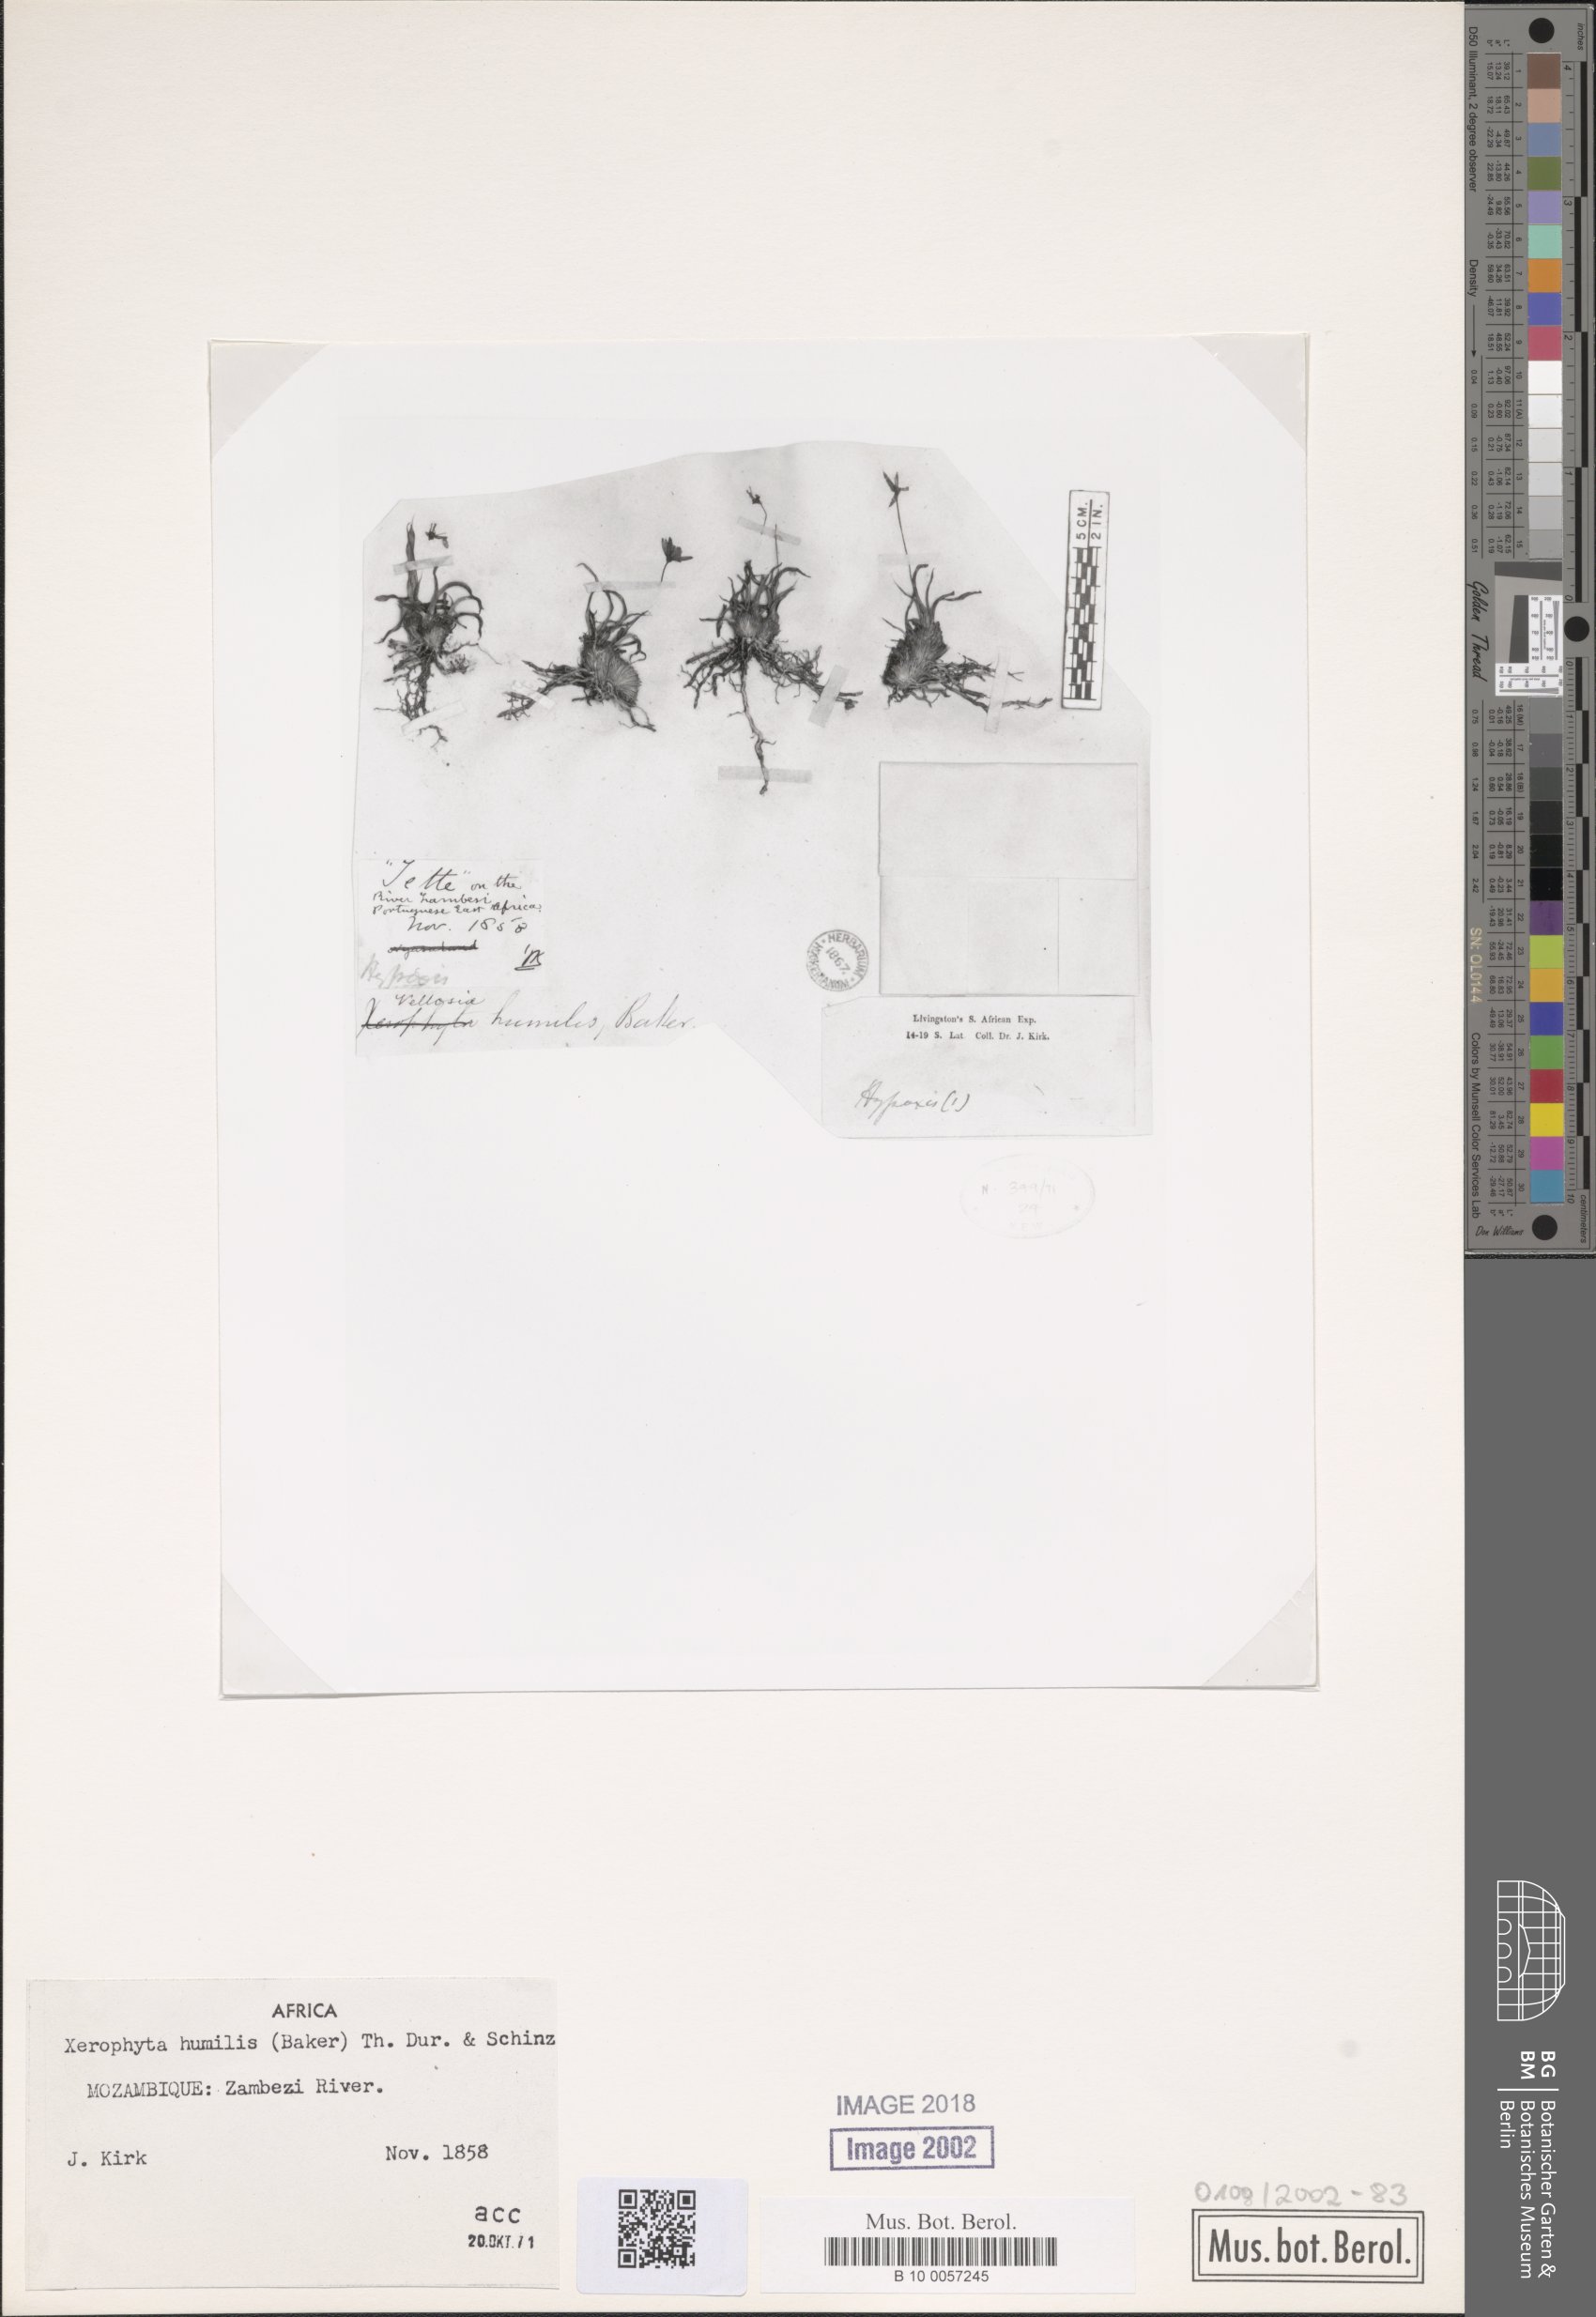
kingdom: Plantae
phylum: Tracheophyta
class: Liliopsida
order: Pandanales
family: Velloziaceae
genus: Xerophyta
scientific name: Xerophyta humilis
